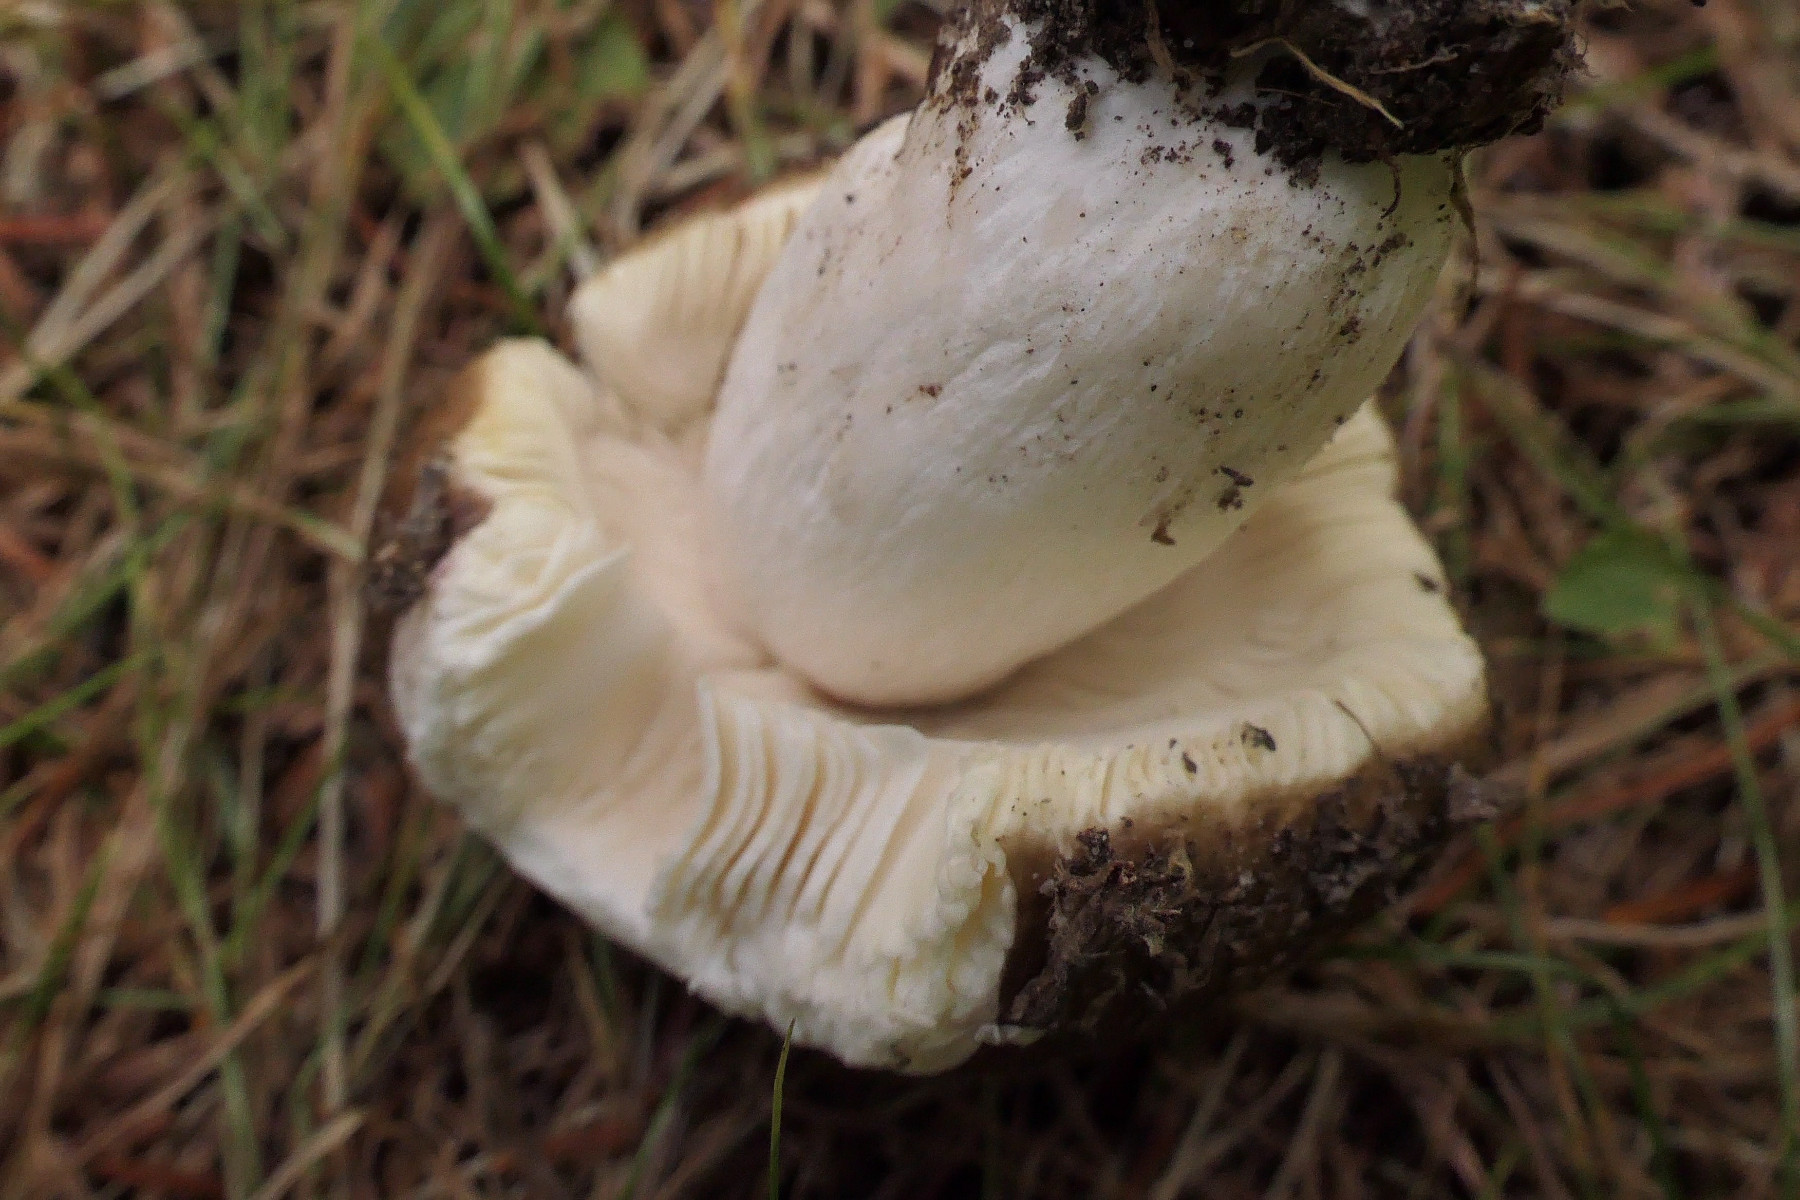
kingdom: Fungi
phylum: Basidiomycota
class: Agaricomycetes
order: Russulales
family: Russulaceae
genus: Russula
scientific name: Russula integra
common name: mandel-skørhat
